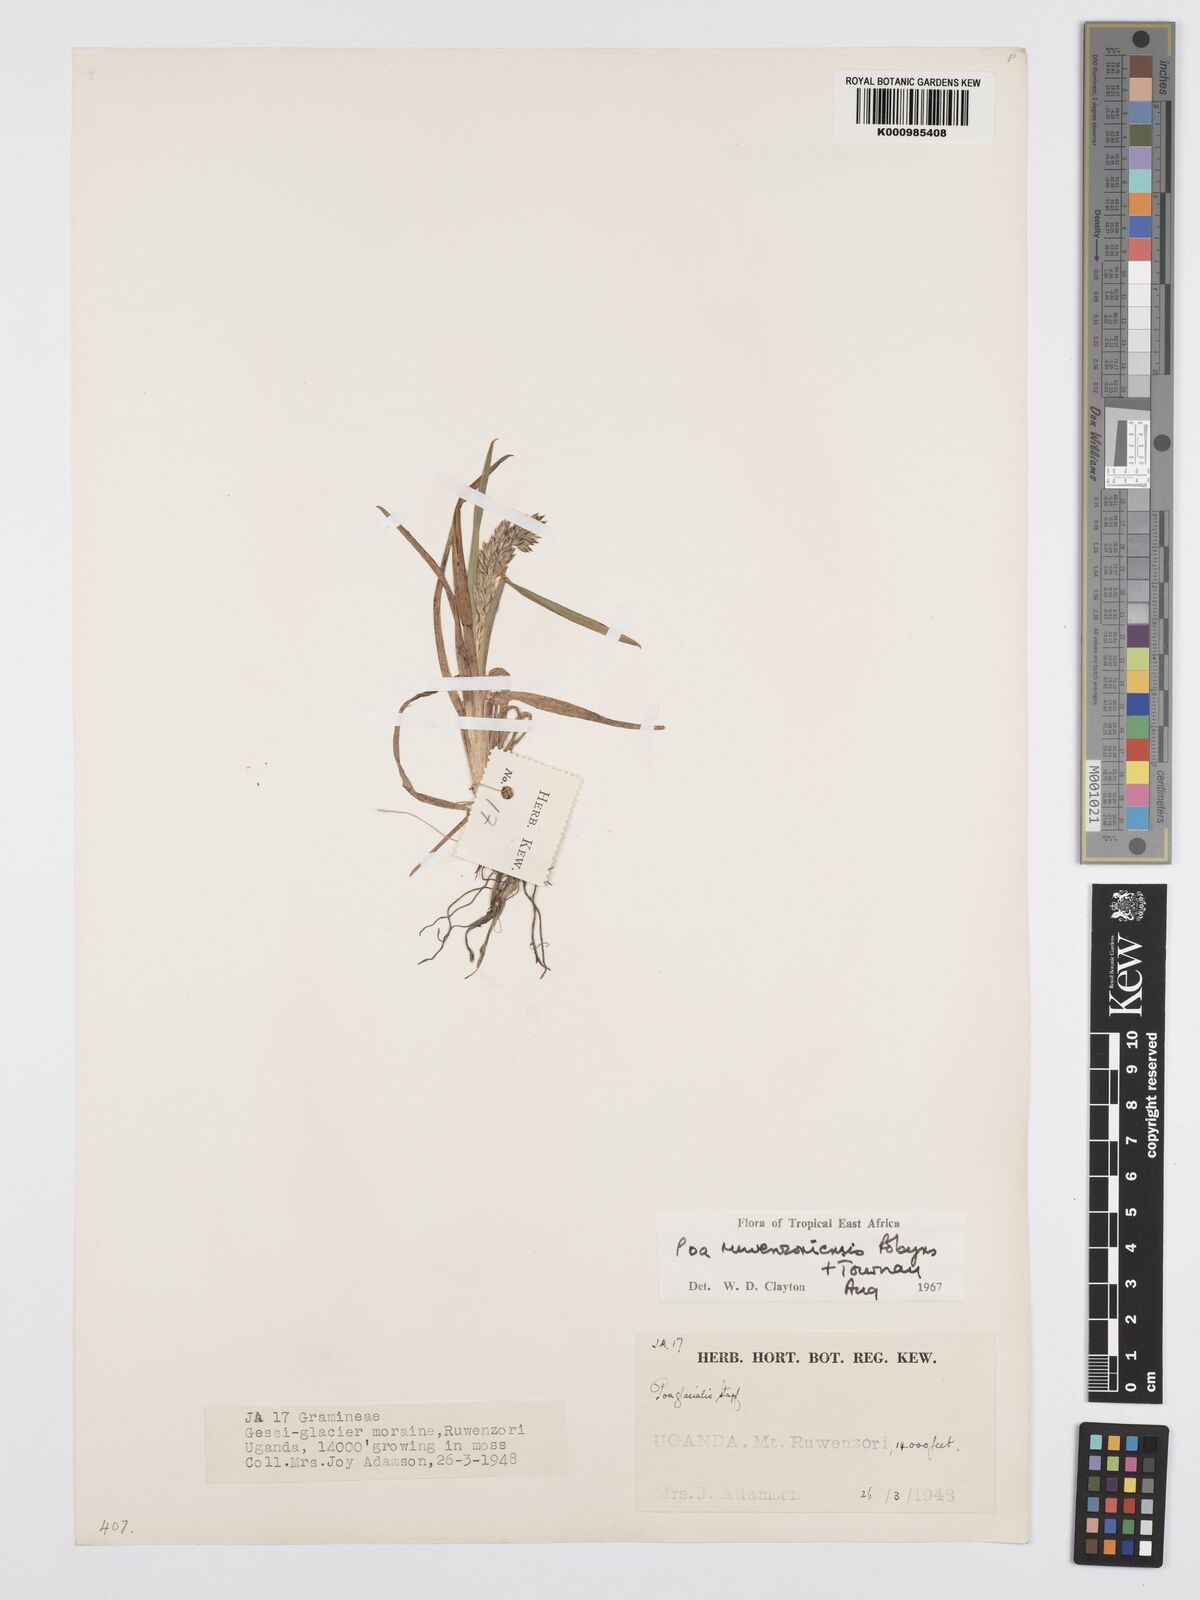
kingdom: Plantae
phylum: Tracheophyta
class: Liliopsida
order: Poales
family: Poaceae
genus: Poa
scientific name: Poa ruwenzoriensis
